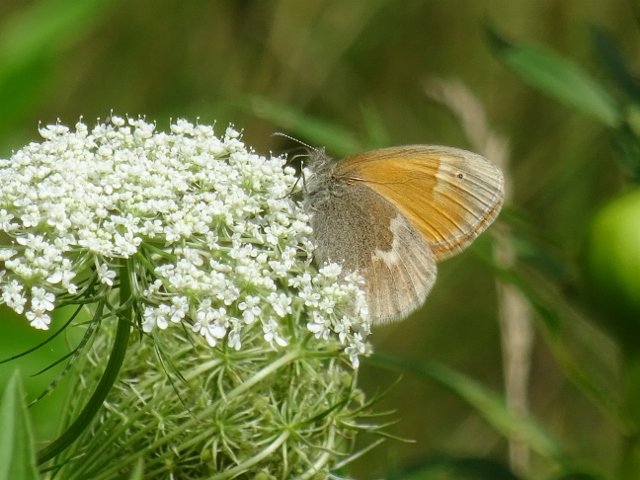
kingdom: Animalia
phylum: Arthropoda
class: Insecta
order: Lepidoptera
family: Nymphalidae
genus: Coenonympha
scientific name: Coenonympha tullia
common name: Large Heath
